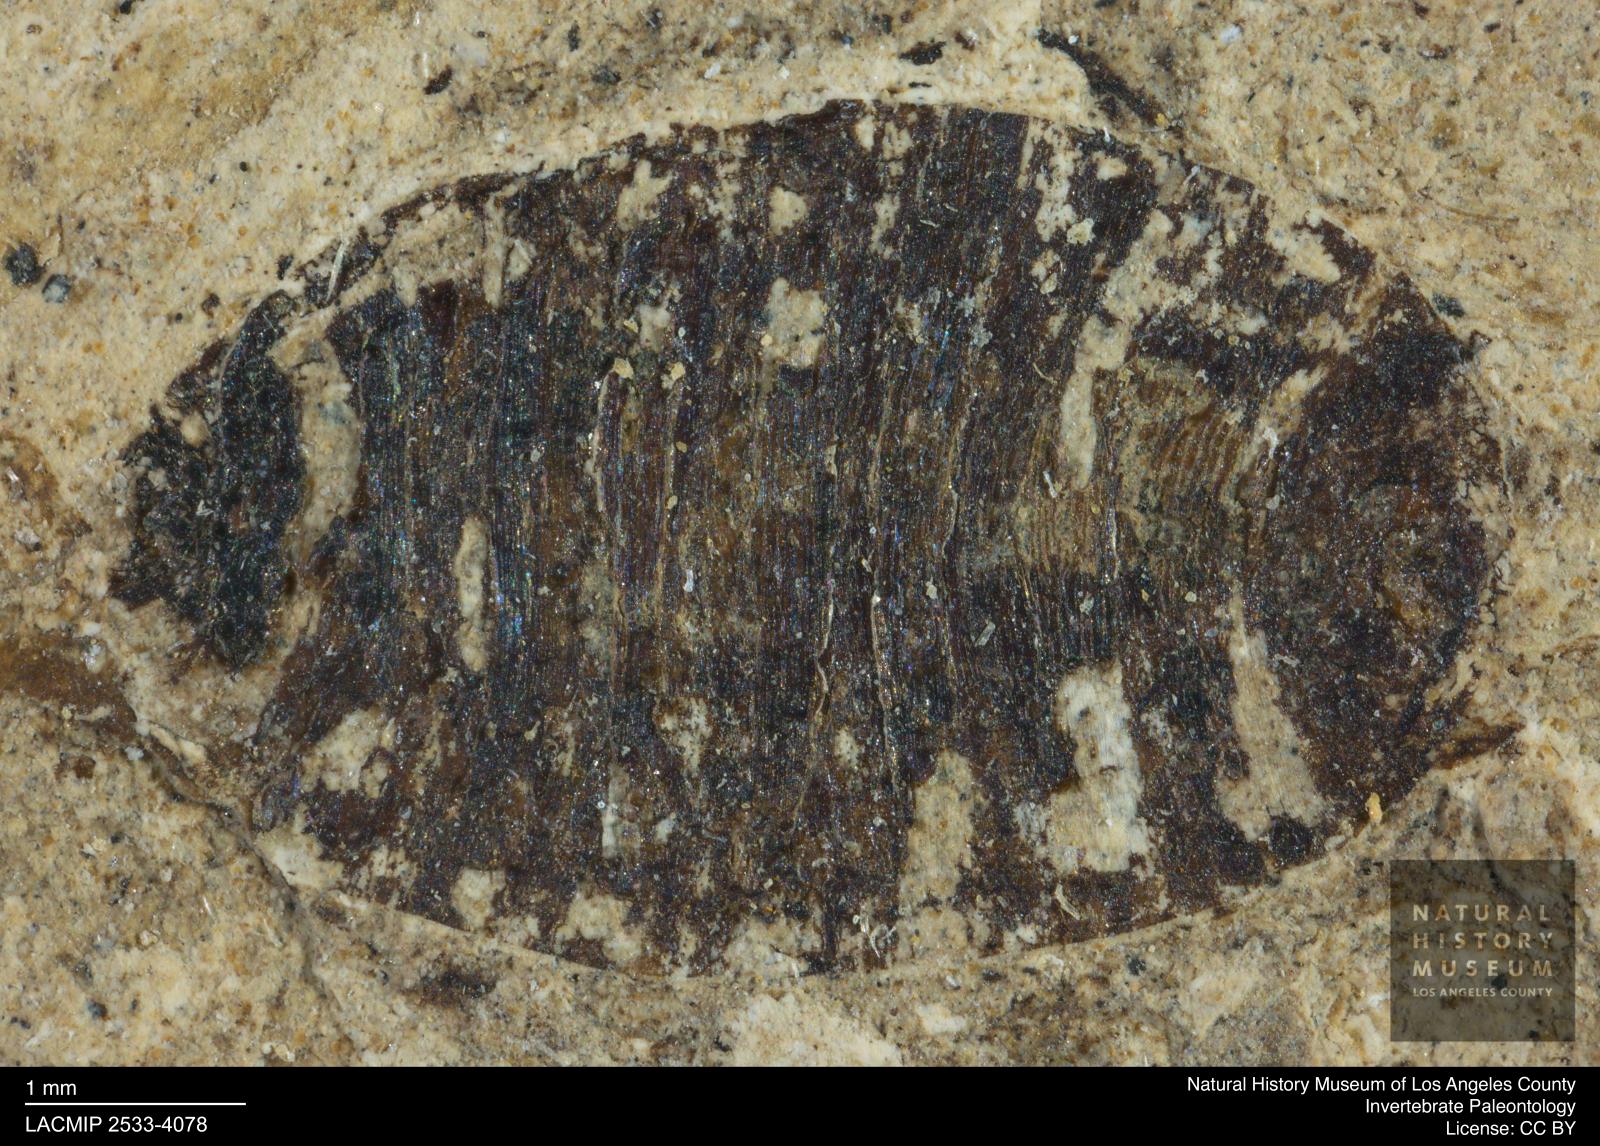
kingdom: Animalia
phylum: Arthropoda
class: Insecta
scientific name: Insecta
